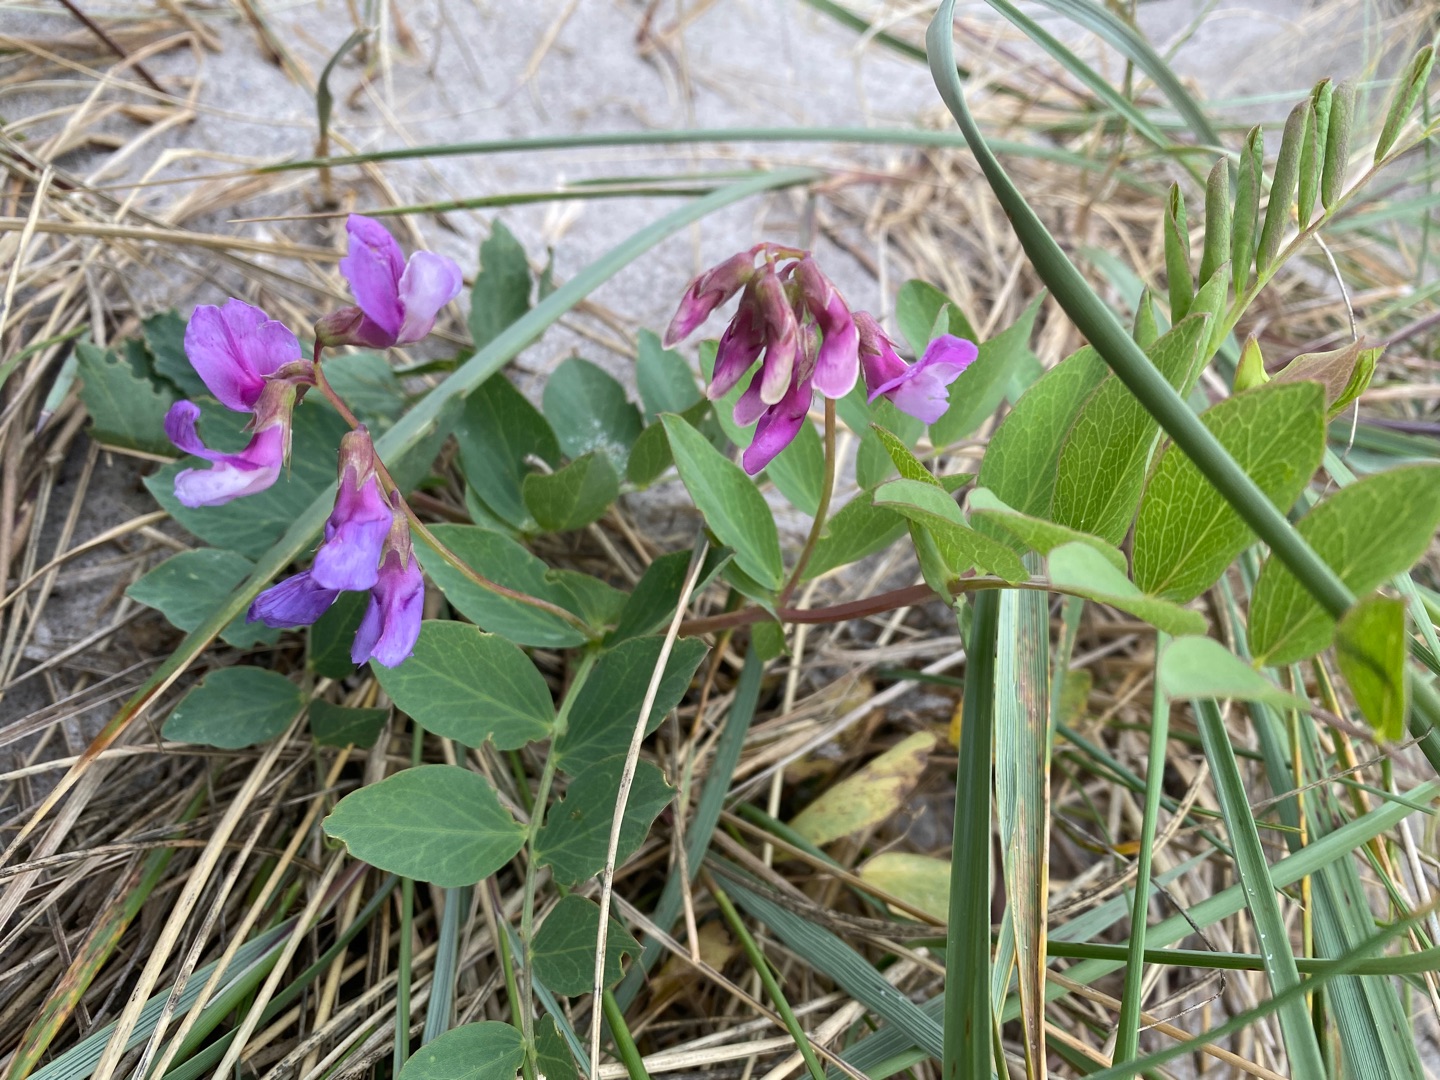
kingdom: Plantae
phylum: Tracheophyta
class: Magnoliopsida
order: Fabales
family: Fabaceae
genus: Lathyrus
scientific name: Lathyrus japonicus
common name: Strand-fladbælg
